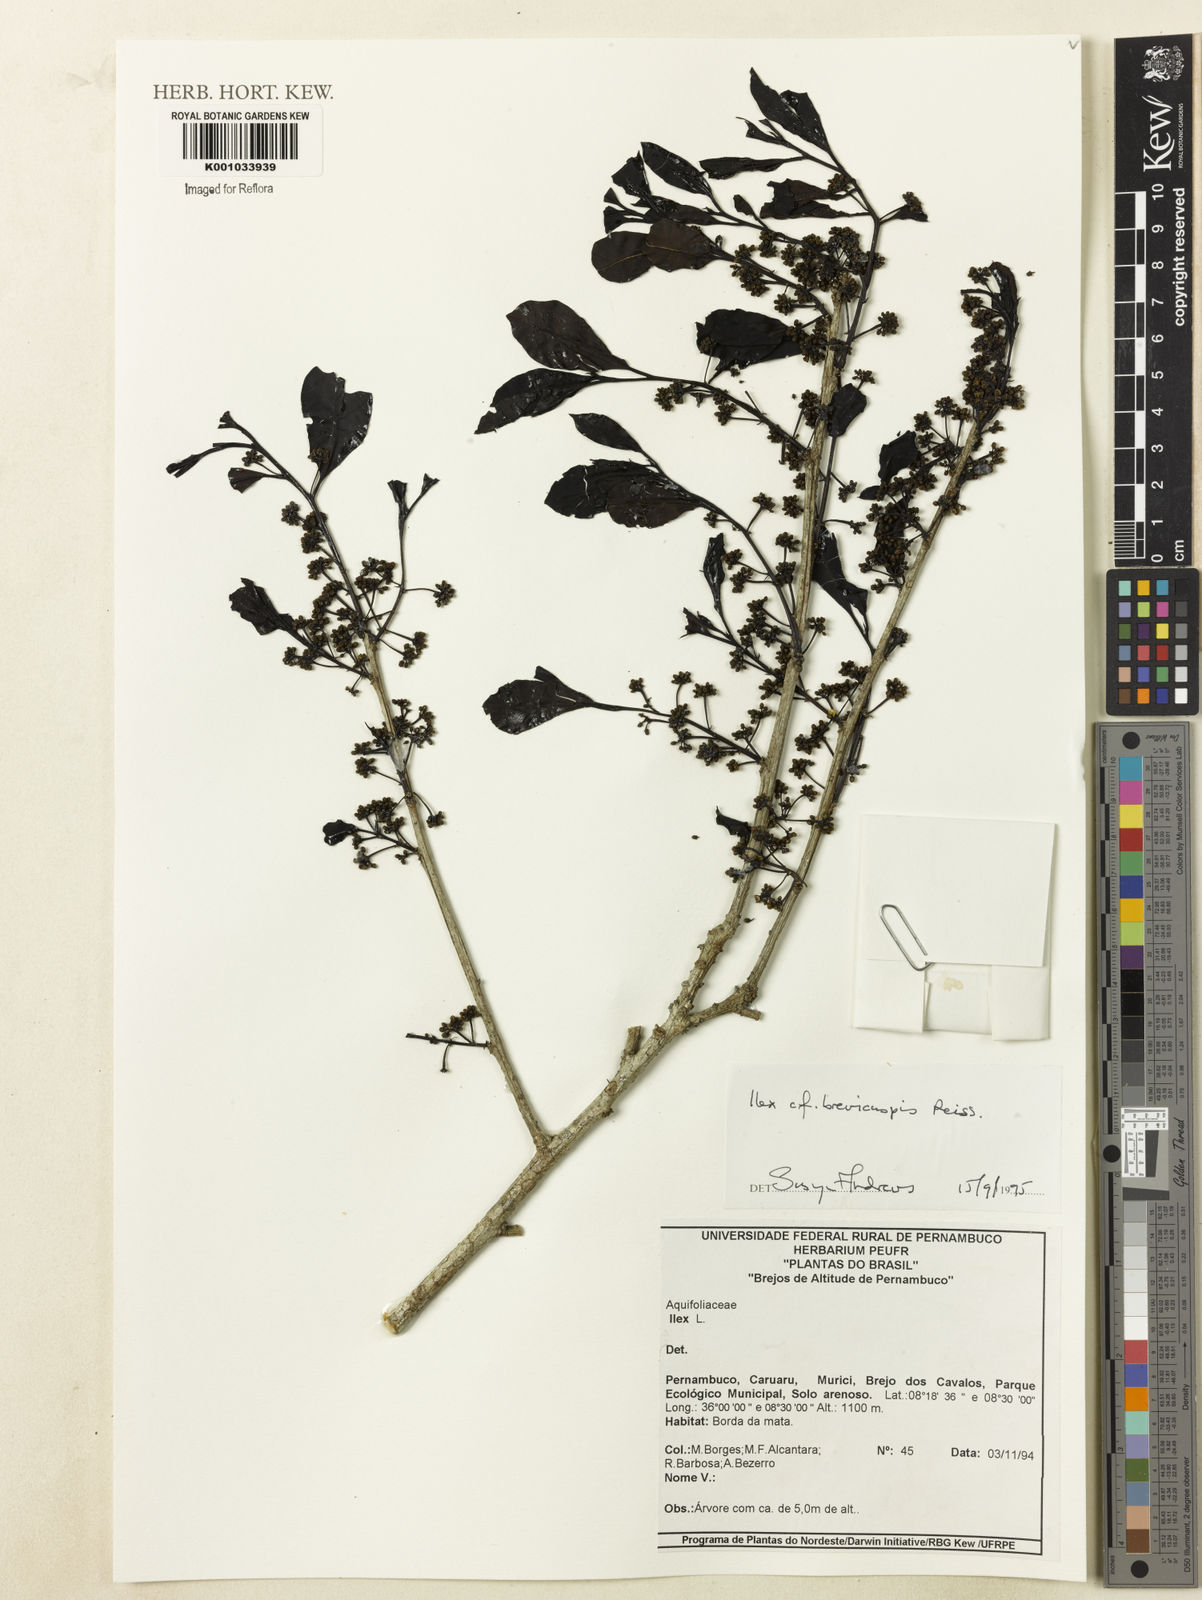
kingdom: Plantae
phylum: Tracheophyta
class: Magnoliopsida
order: Aquifoliales
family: Aquifoliaceae
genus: Ilex
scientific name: Ilex brevicuspis
